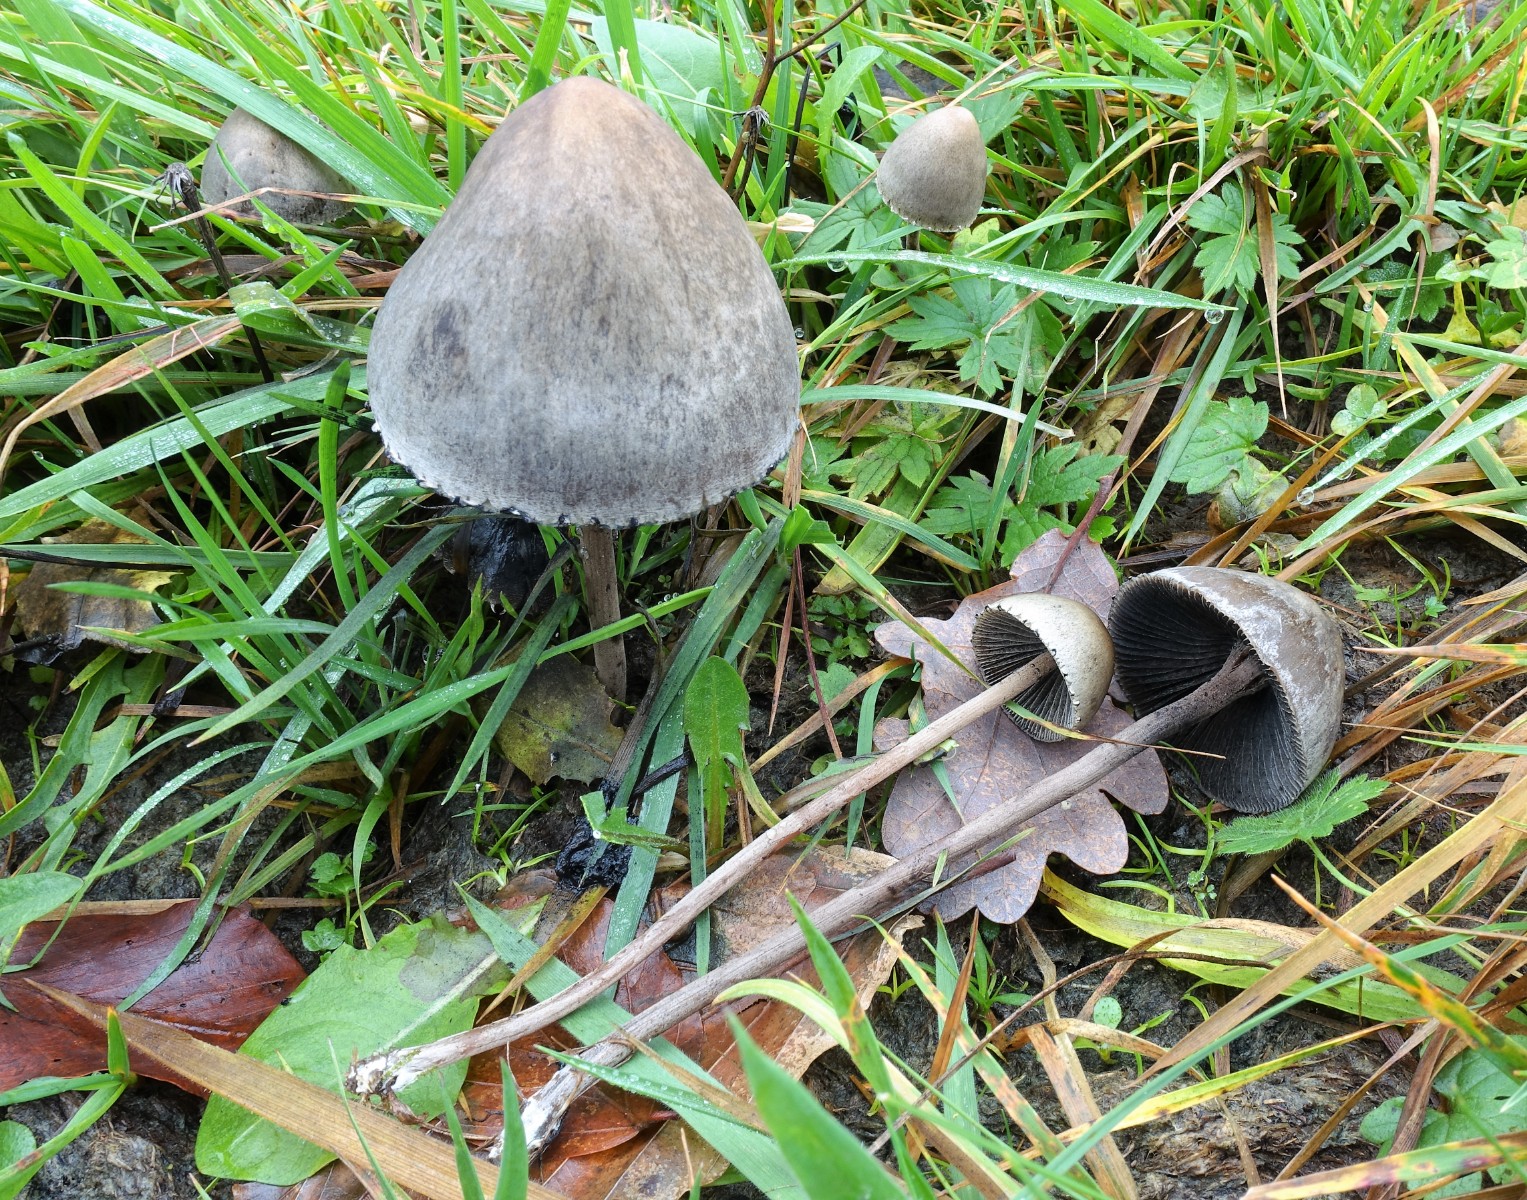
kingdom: Fungi
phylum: Basidiomycota
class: Agaricomycetes
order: Agaricales
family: Bolbitiaceae
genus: Panaeolus
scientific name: Panaeolus papilionaceus
